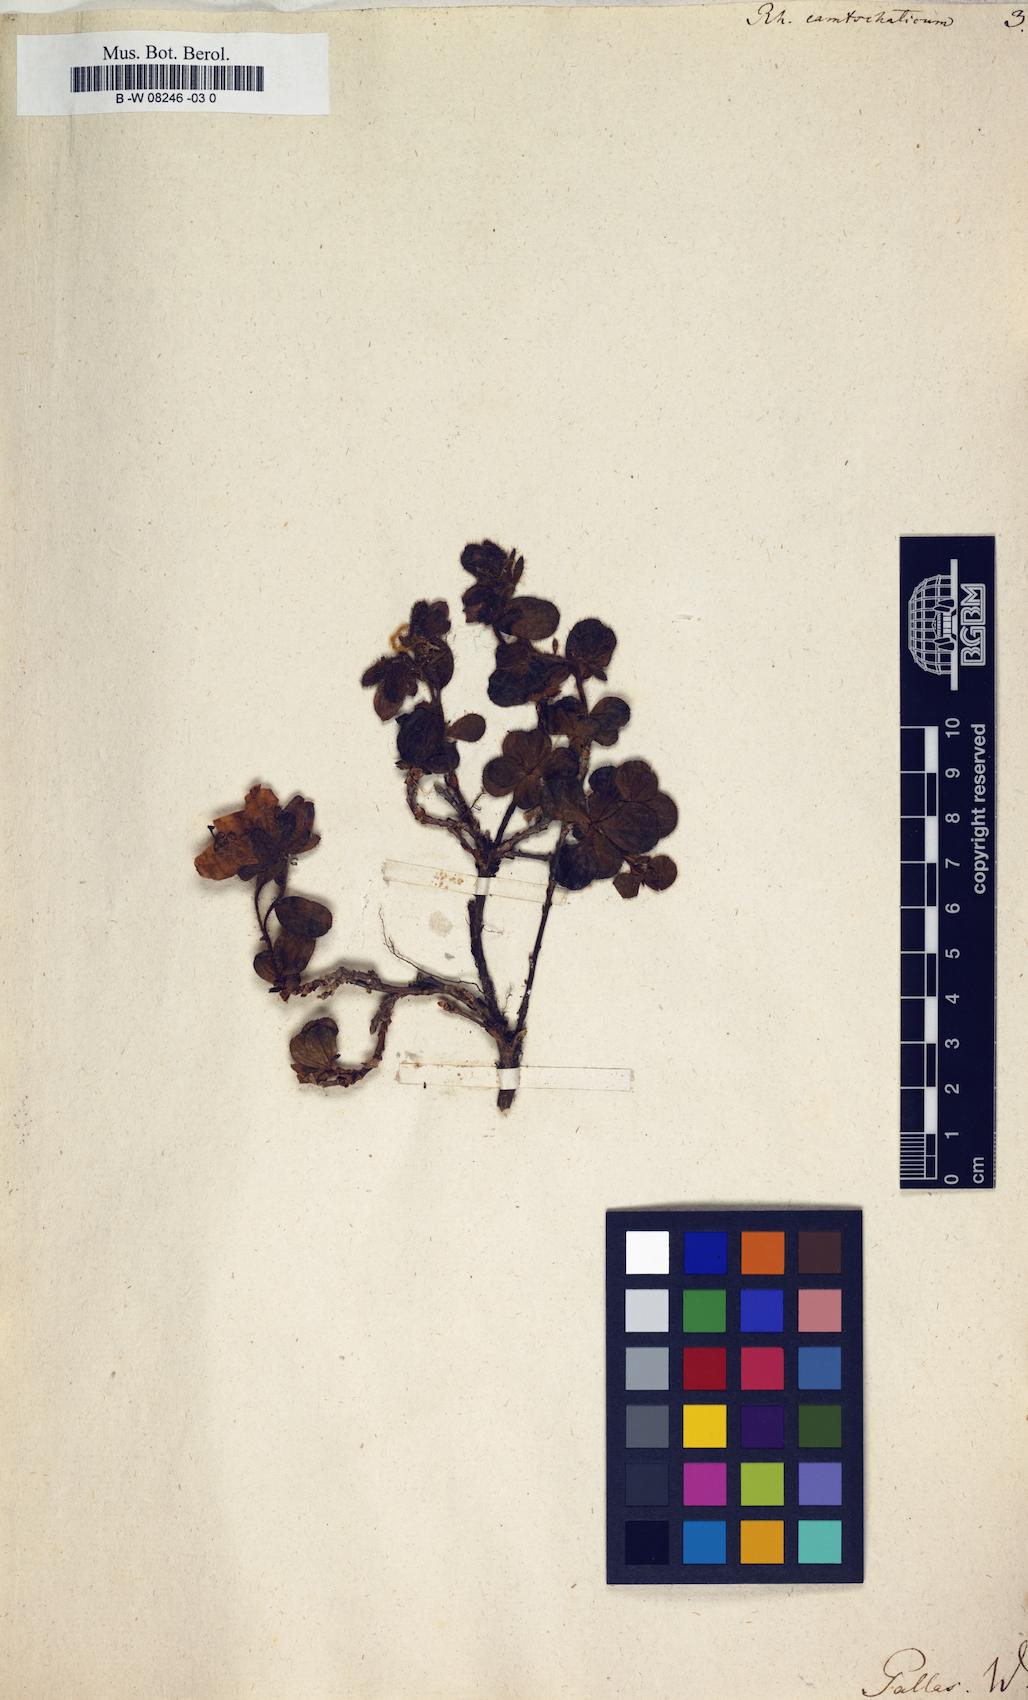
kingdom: Plantae
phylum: Tracheophyta
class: Magnoliopsida
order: Ericales
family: Ericaceae
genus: Rhododendron
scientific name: Rhododendron camtschaticum
